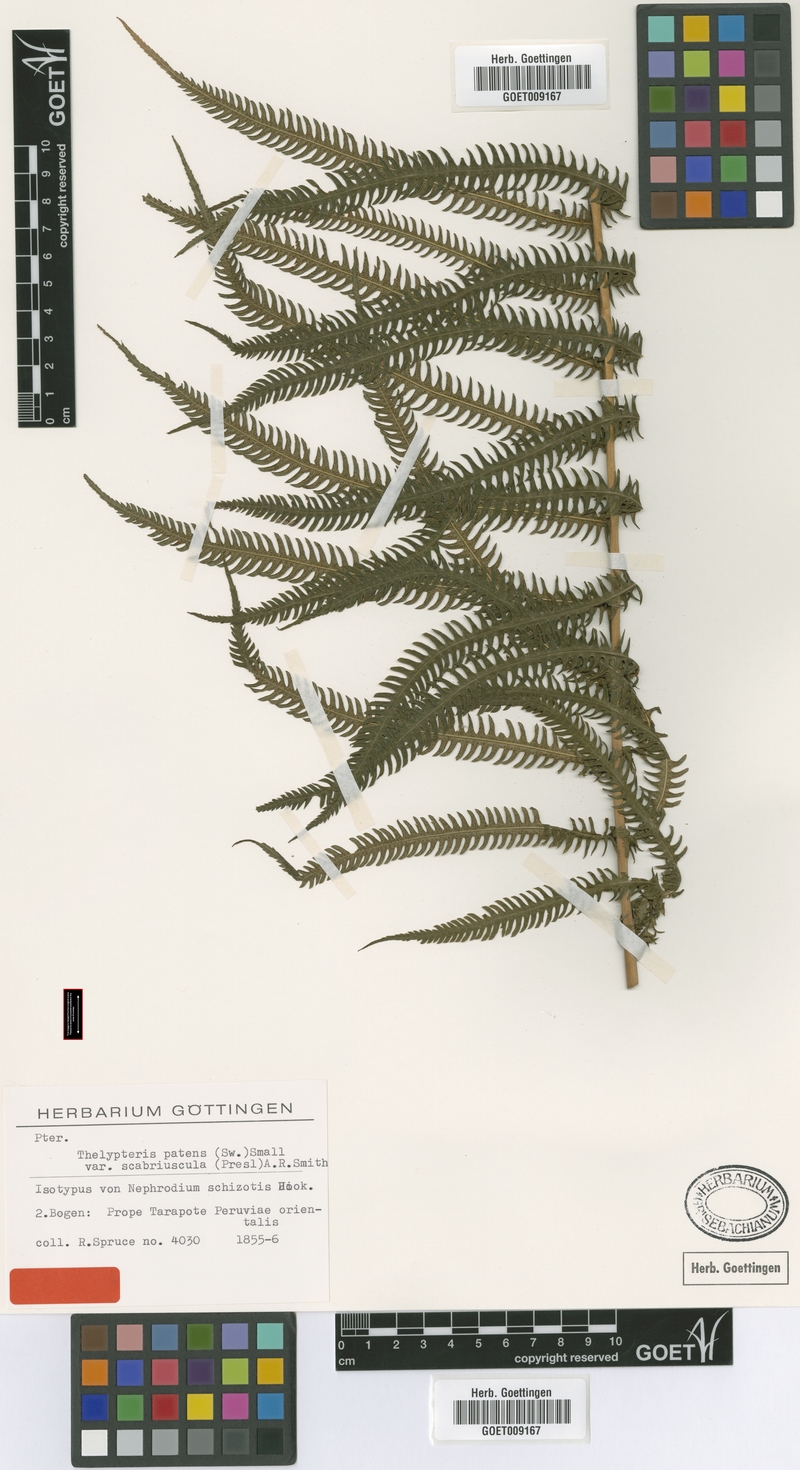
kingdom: Plantae
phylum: Tracheophyta
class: Polypodiopsida
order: Polypodiales
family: Thelypteridaceae
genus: Pelazoneuron
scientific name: Pelazoneuron patens
